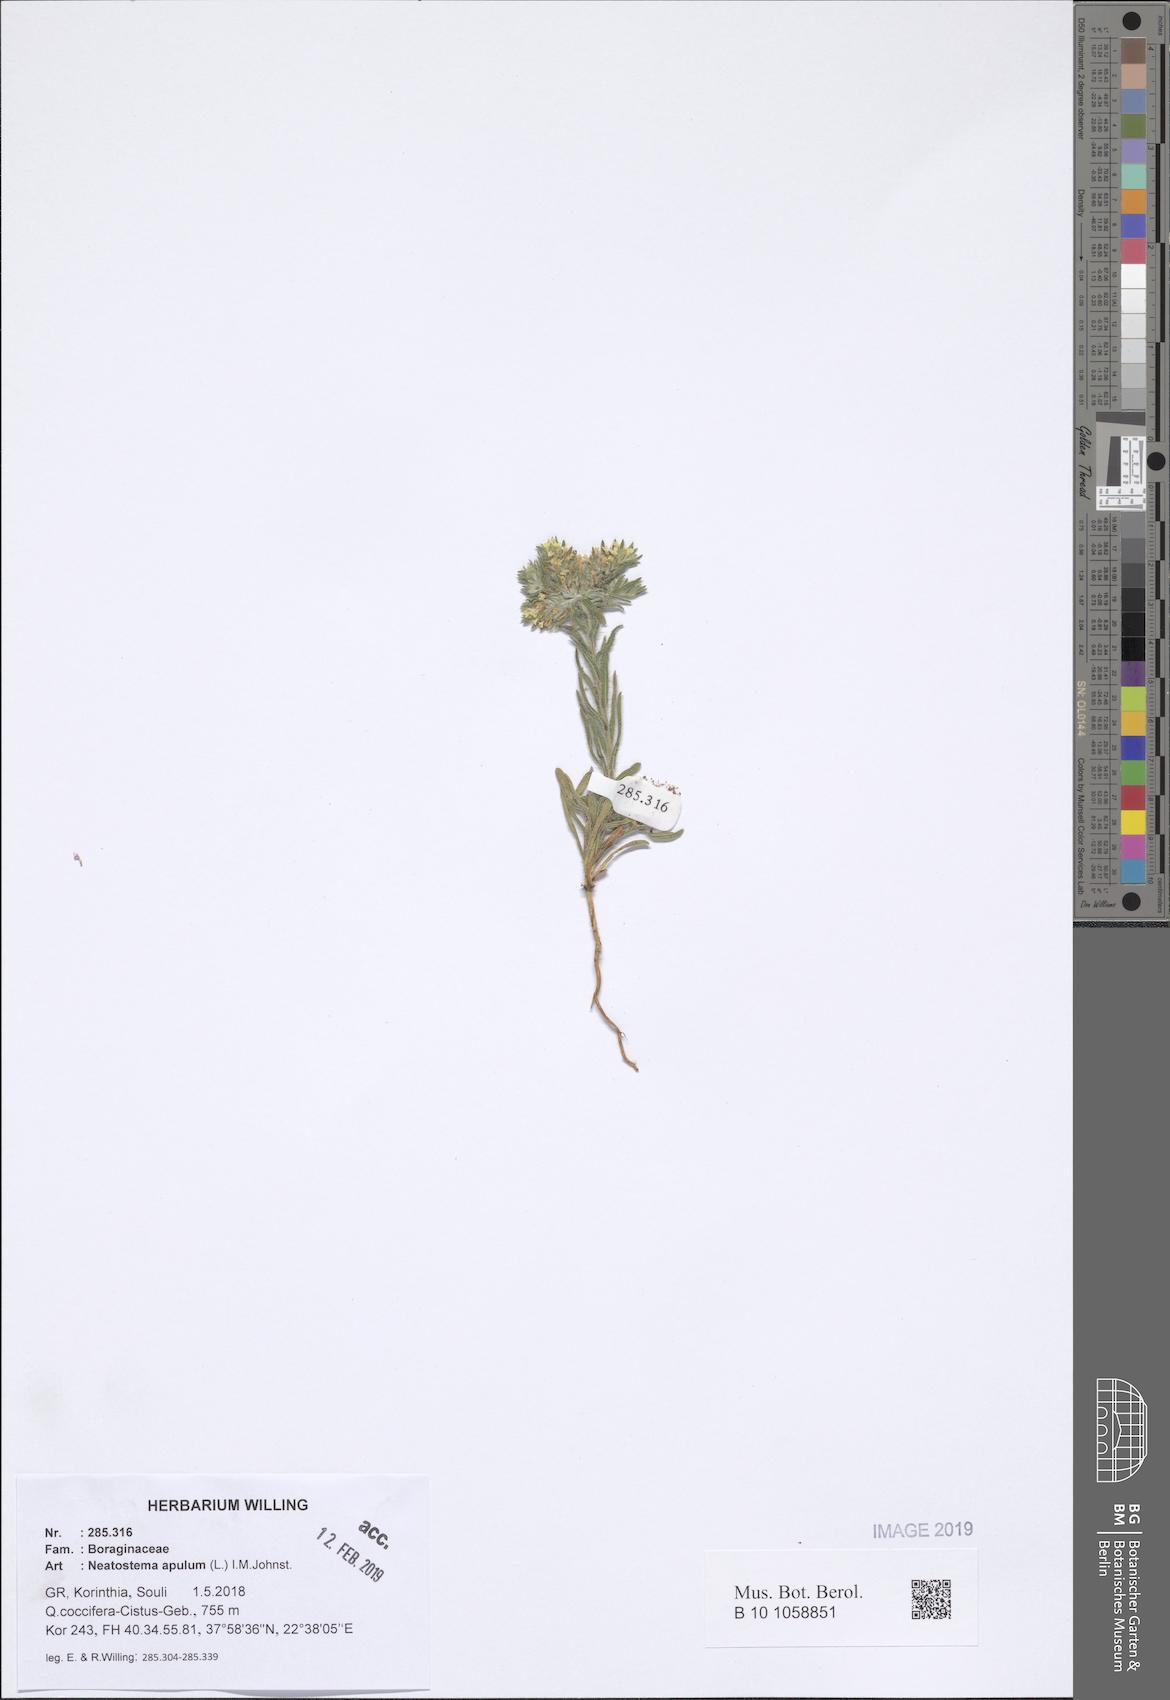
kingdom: Plantae
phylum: Tracheophyta
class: Magnoliopsida
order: Boraginales
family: Boraginaceae
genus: Neatostema
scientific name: Neatostema apulum
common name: Hairy sheepweed
